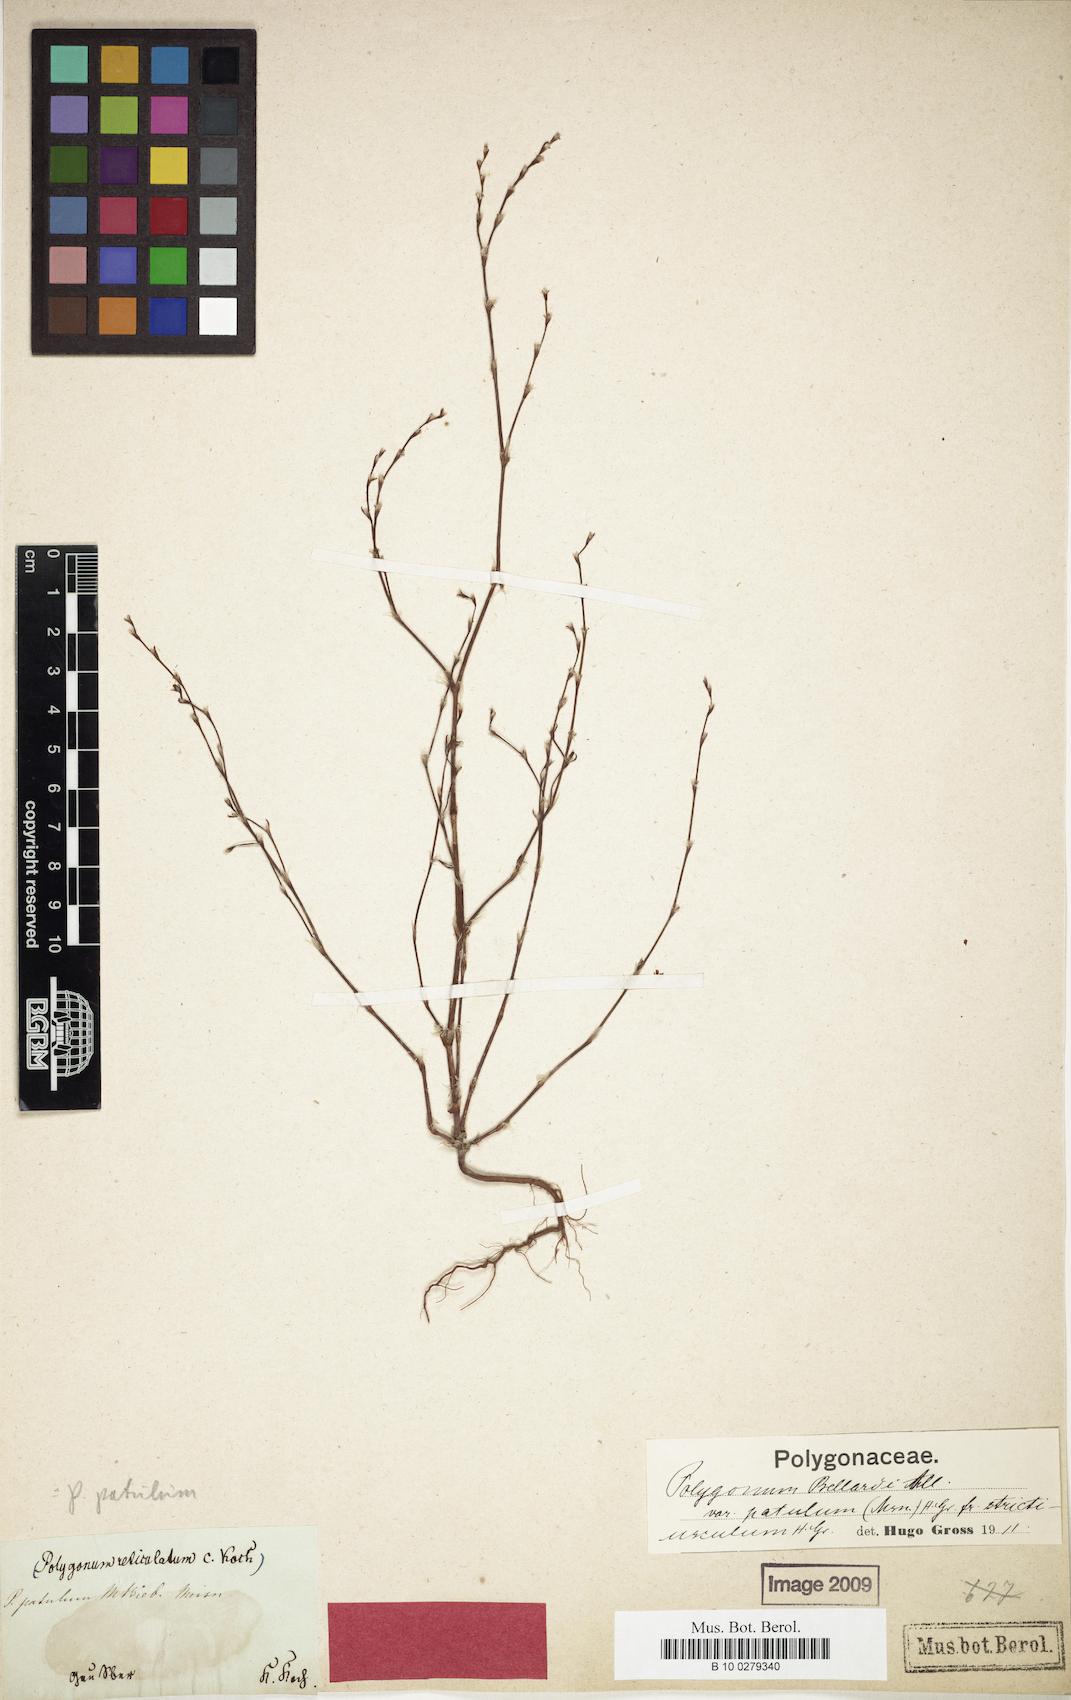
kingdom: Plantae
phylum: Tracheophyta
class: Magnoliopsida
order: Caryophyllales
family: Polygonaceae
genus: Polygonum
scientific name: Polygonum bellardii
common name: Narrowleaf knotweed
